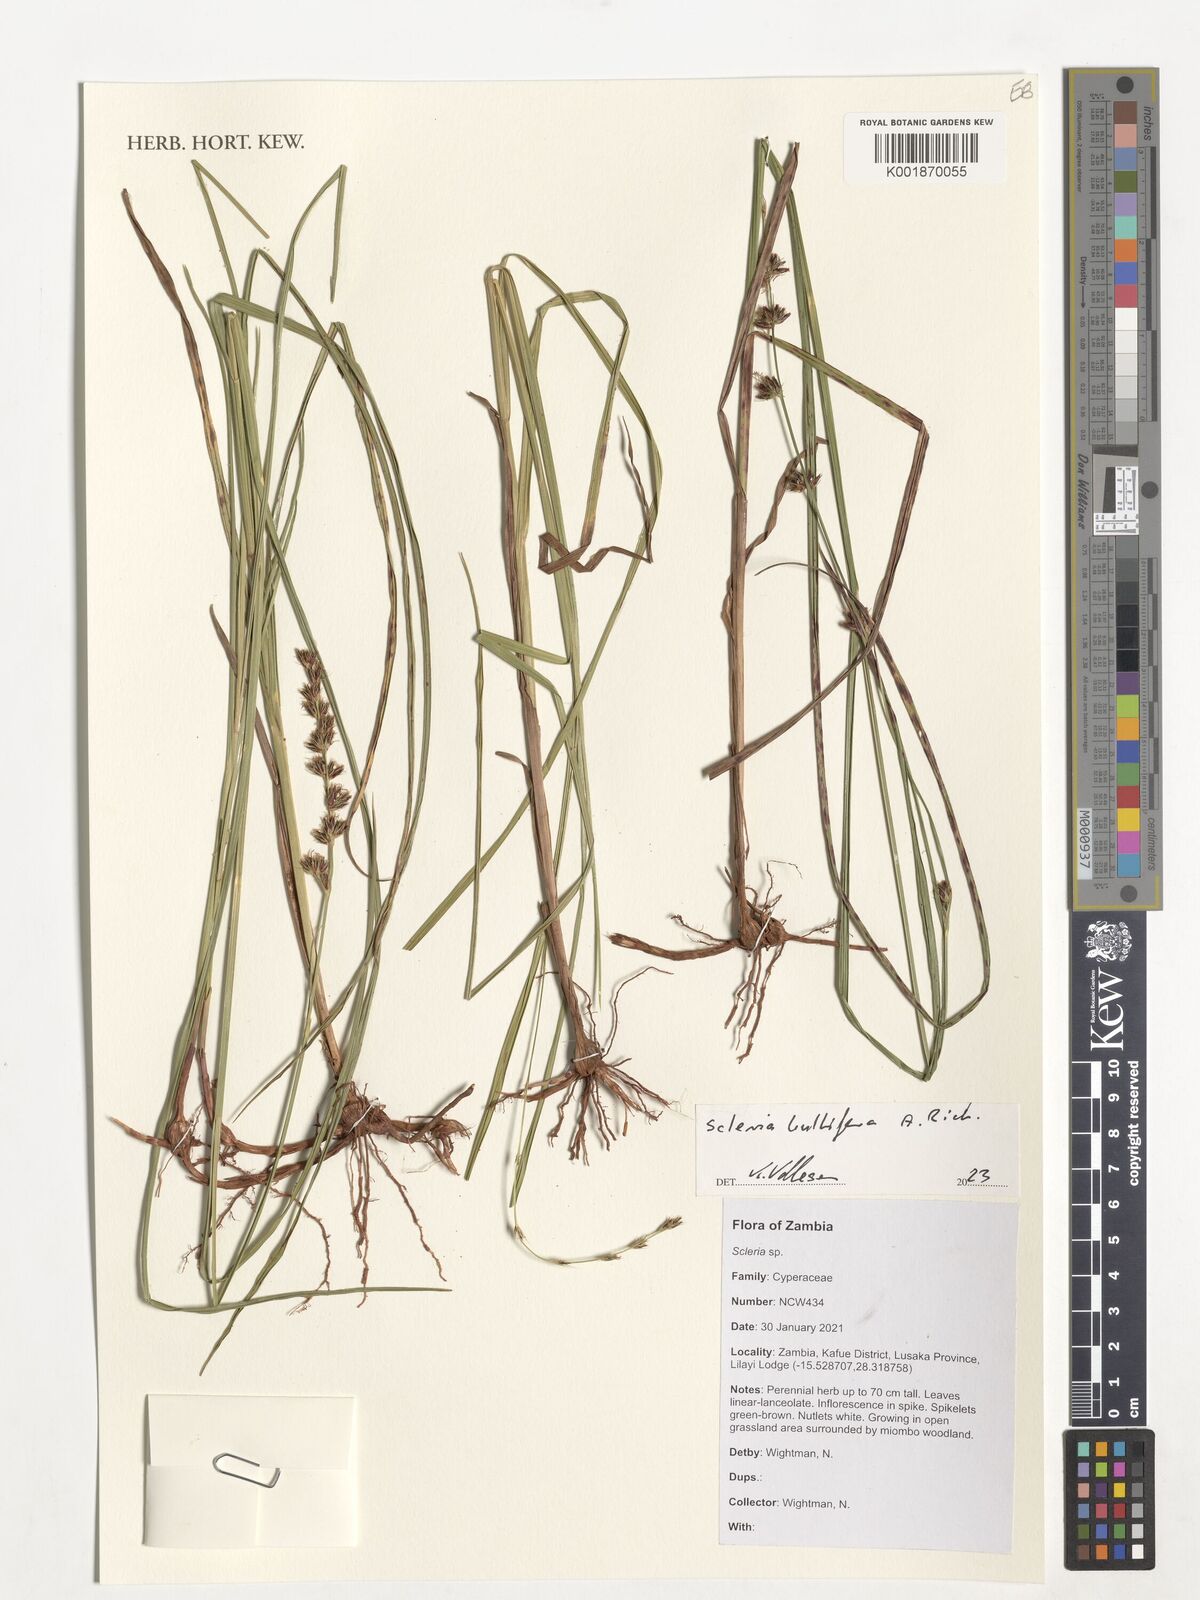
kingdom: Plantae
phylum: Tracheophyta
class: Liliopsida
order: Poales
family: Cyperaceae
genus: Scleria
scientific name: Scleria bulbifera
